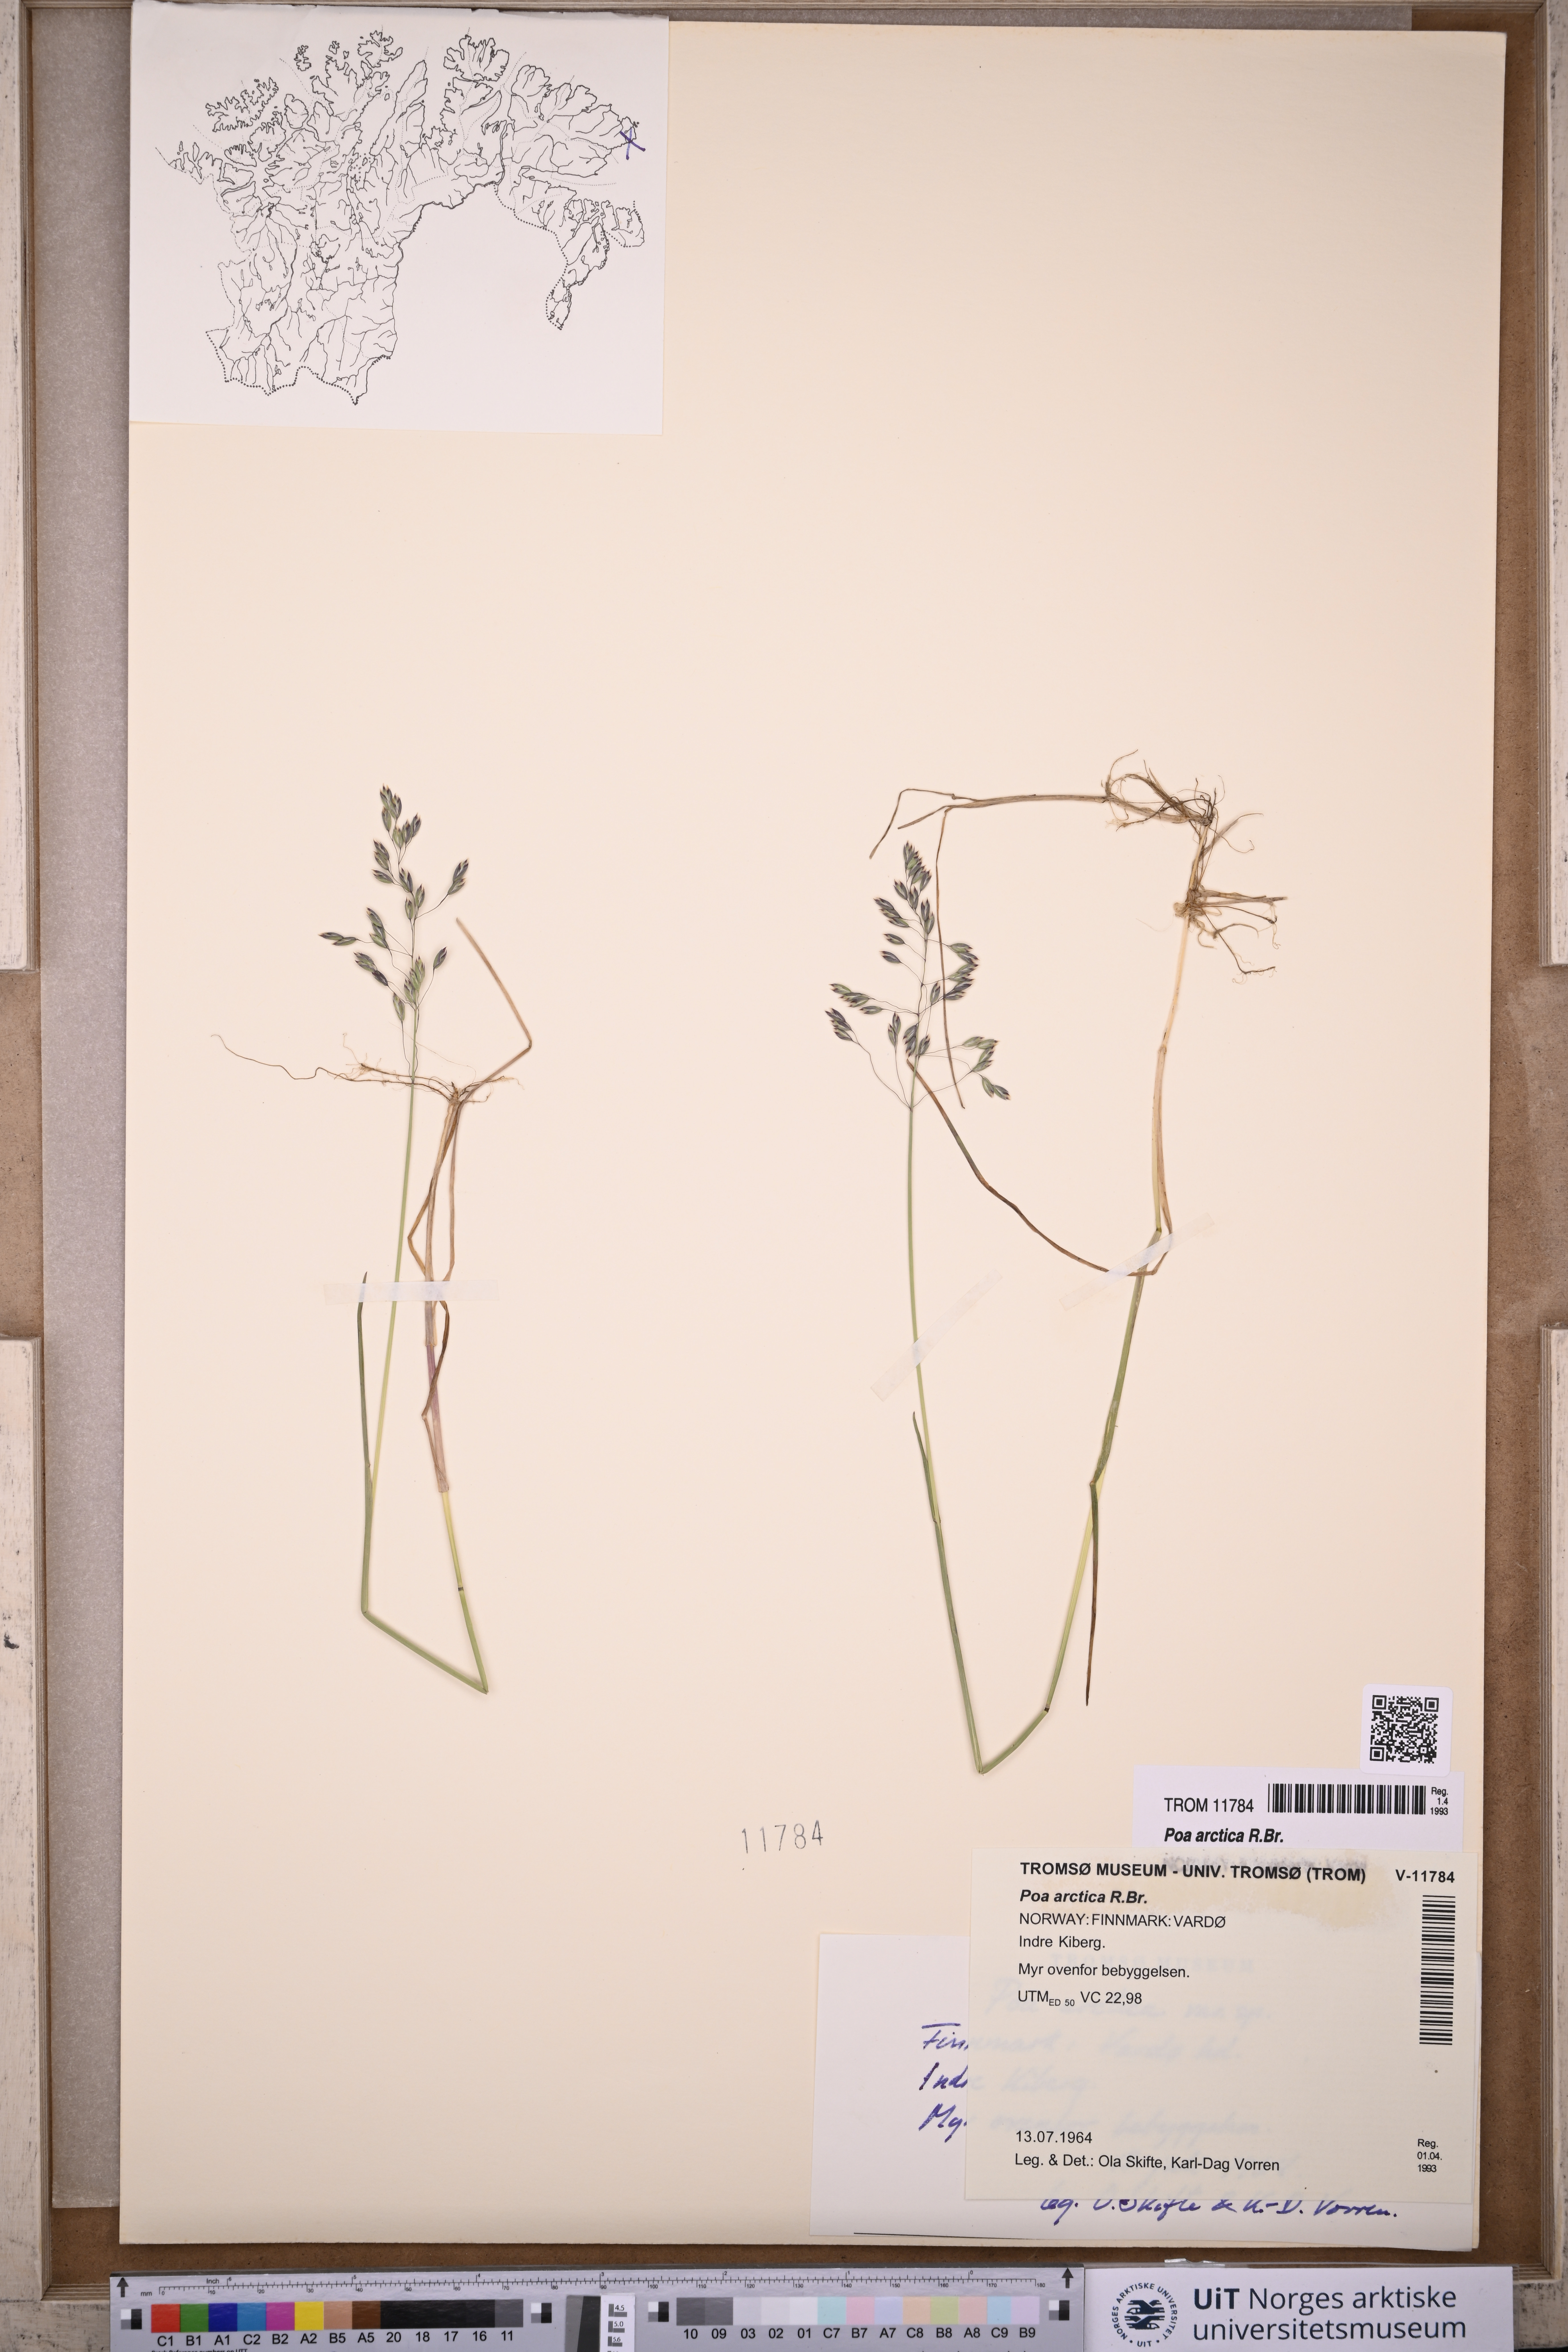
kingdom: Plantae
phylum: Tracheophyta
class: Liliopsida
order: Poales
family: Poaceae
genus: Poa
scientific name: Poa arctica
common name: Arctic bluegrass
